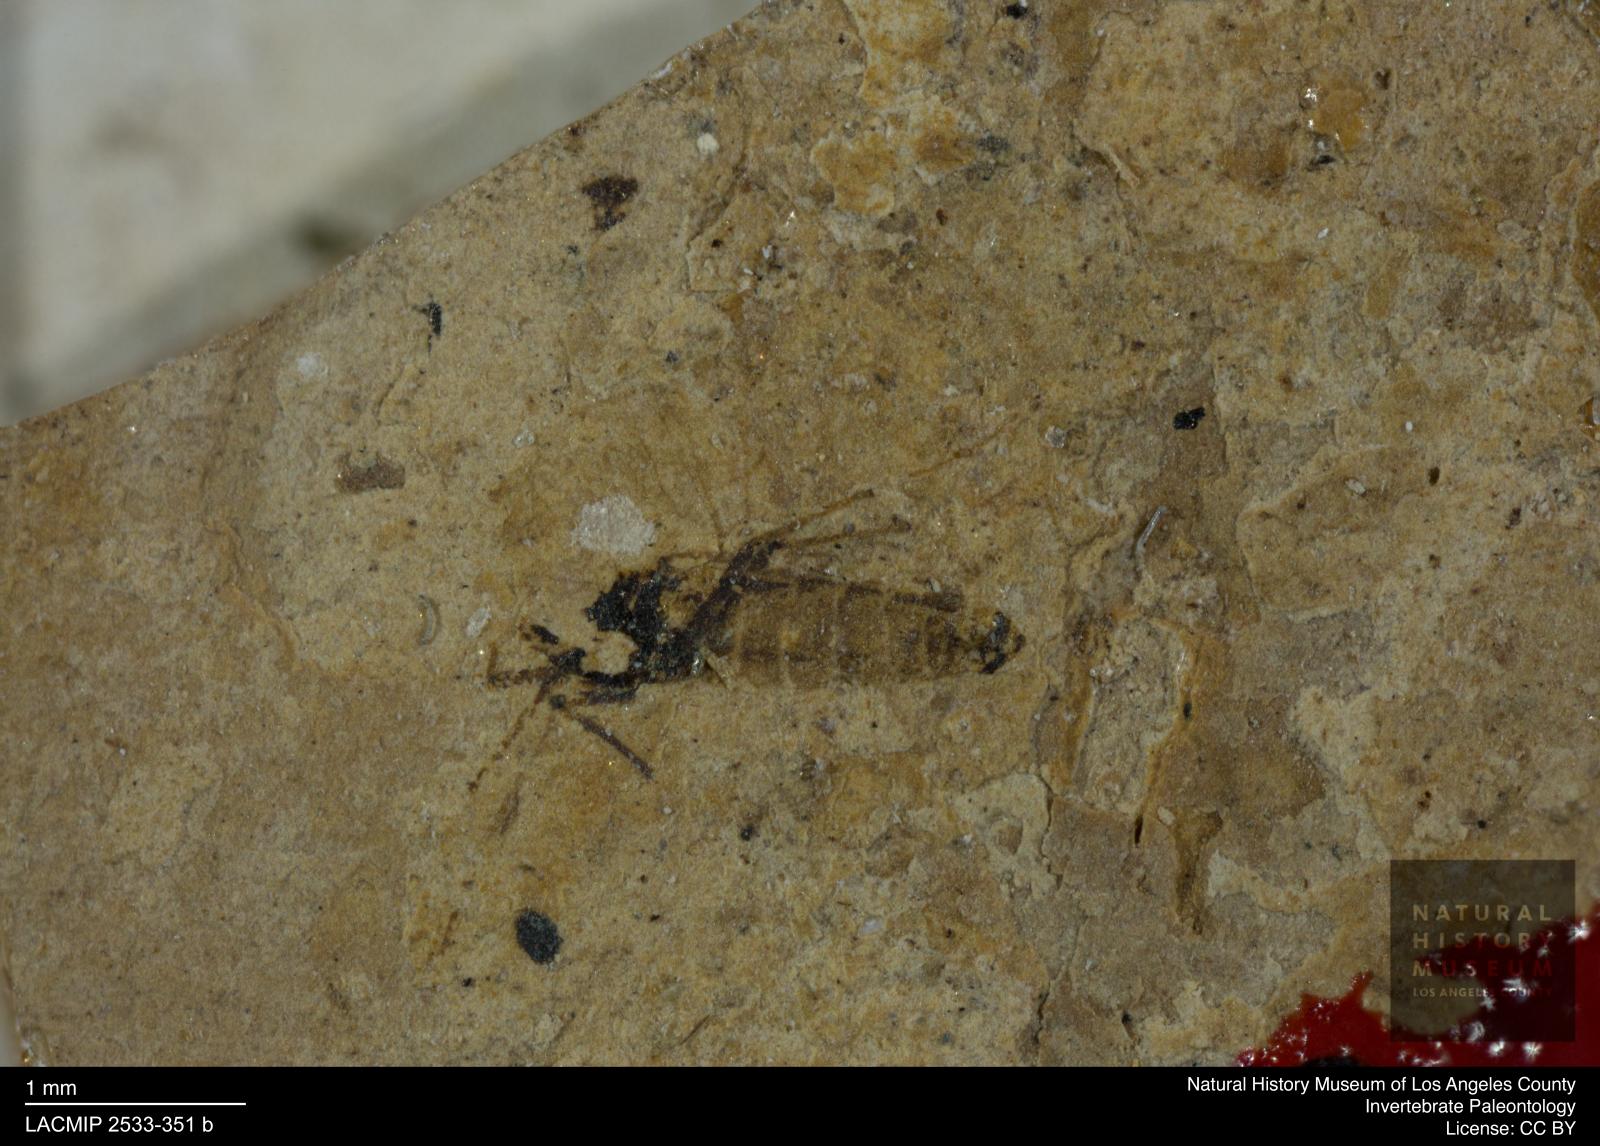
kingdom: Animalia
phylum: Arthropoda
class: Insecta
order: Diptera
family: Ceratopogonidae
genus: Culicoides
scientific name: Culicoides austerus
